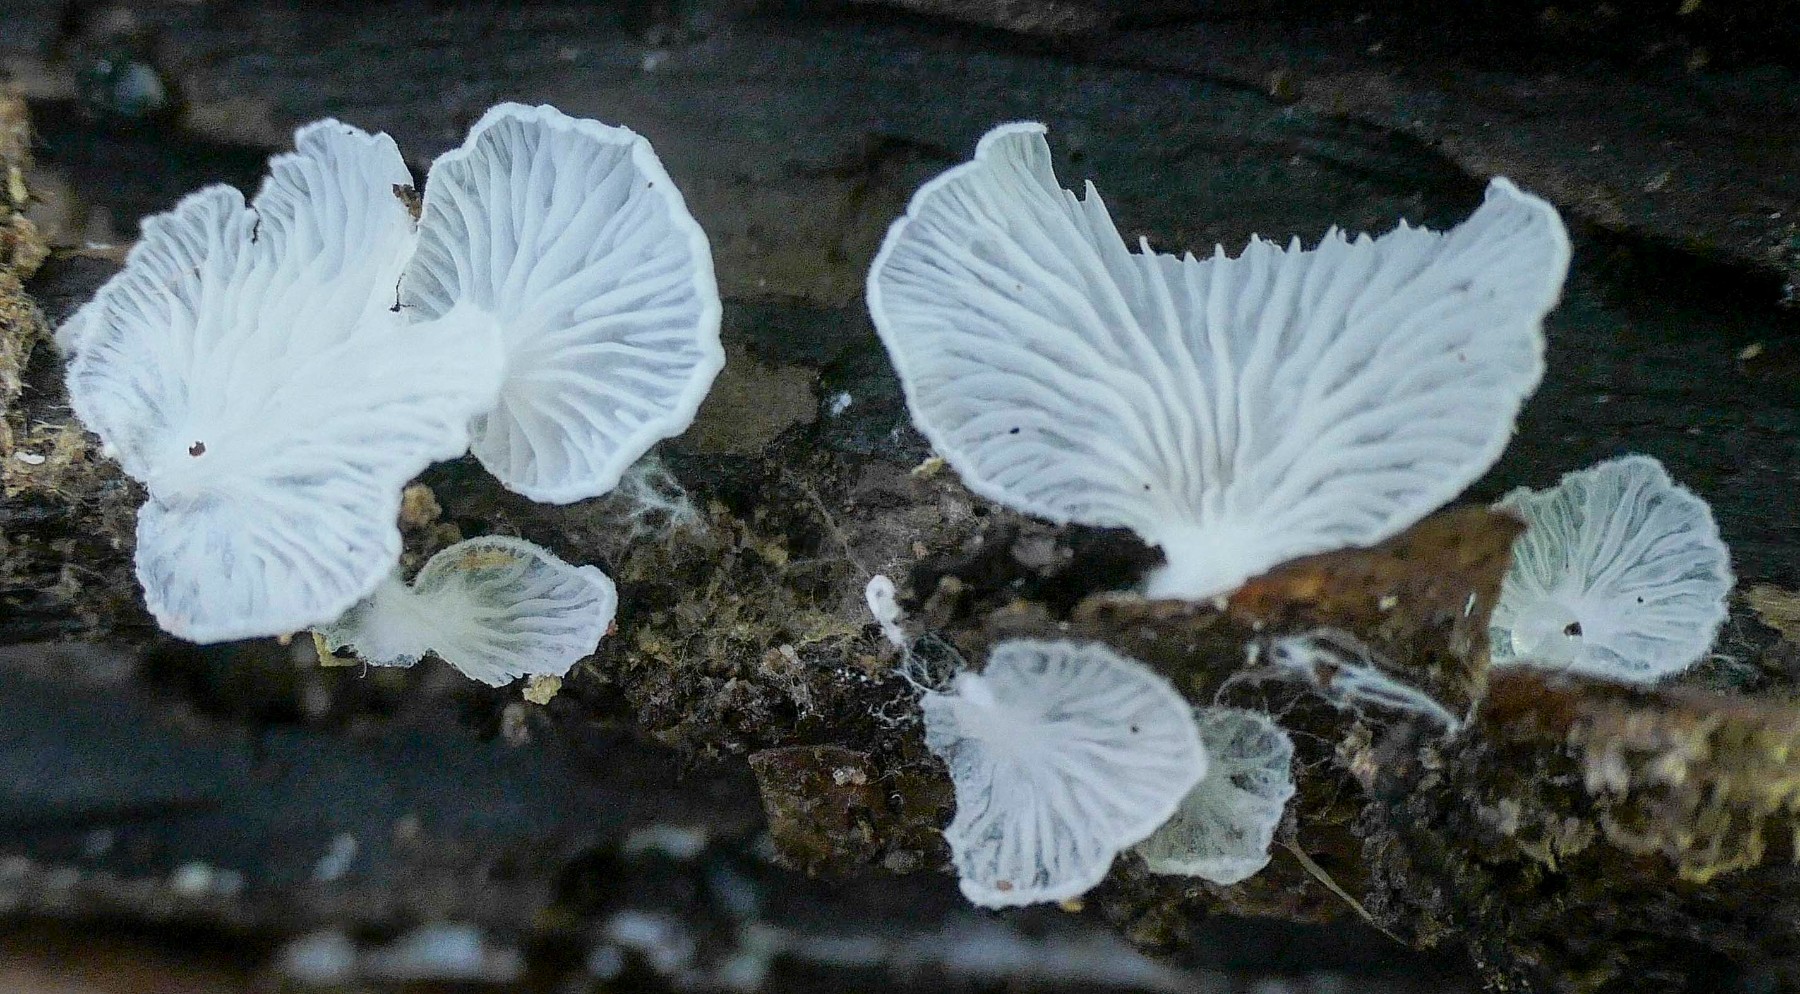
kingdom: Fungi
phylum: Basidiomycota
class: Agaricomycetes
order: Agaricales
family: Entolomataceae
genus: Clitopilus
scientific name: Clitopilus hobsonii
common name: Miller's oysterling
